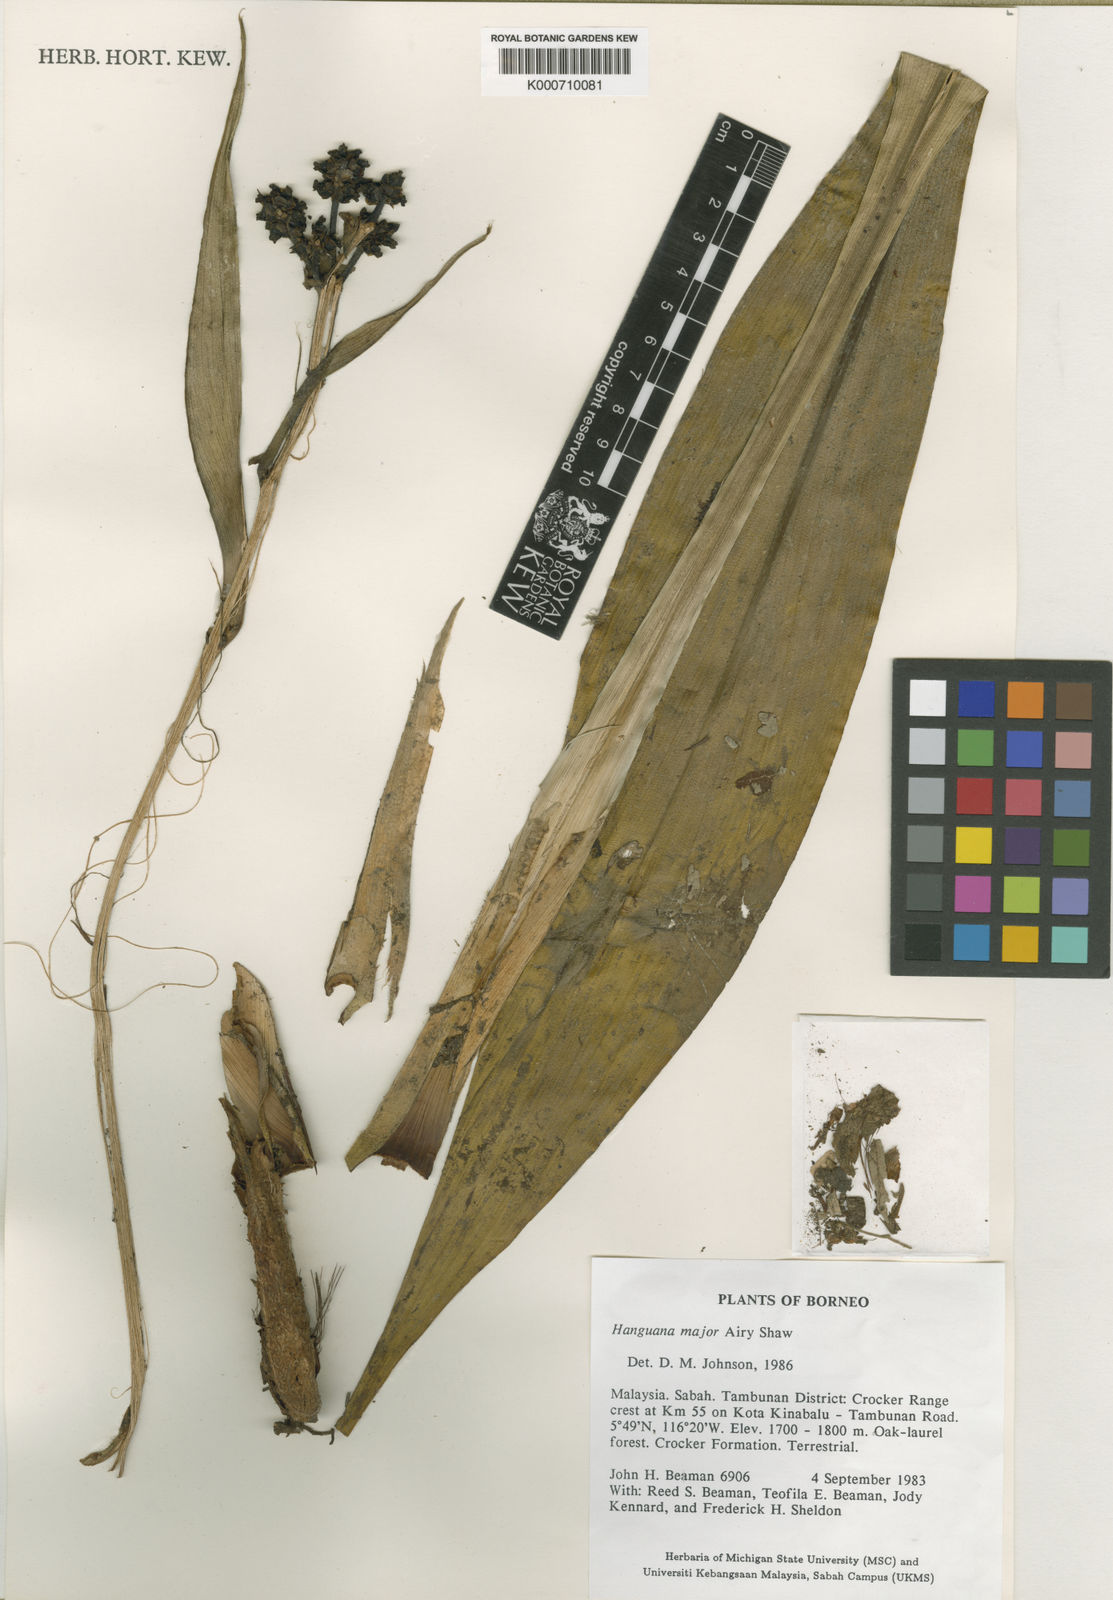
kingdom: Plantae
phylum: Tracheophyta
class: Liliopsida
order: Commelinales
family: Hanguanaceae
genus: Hanguana
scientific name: Hanguana major
